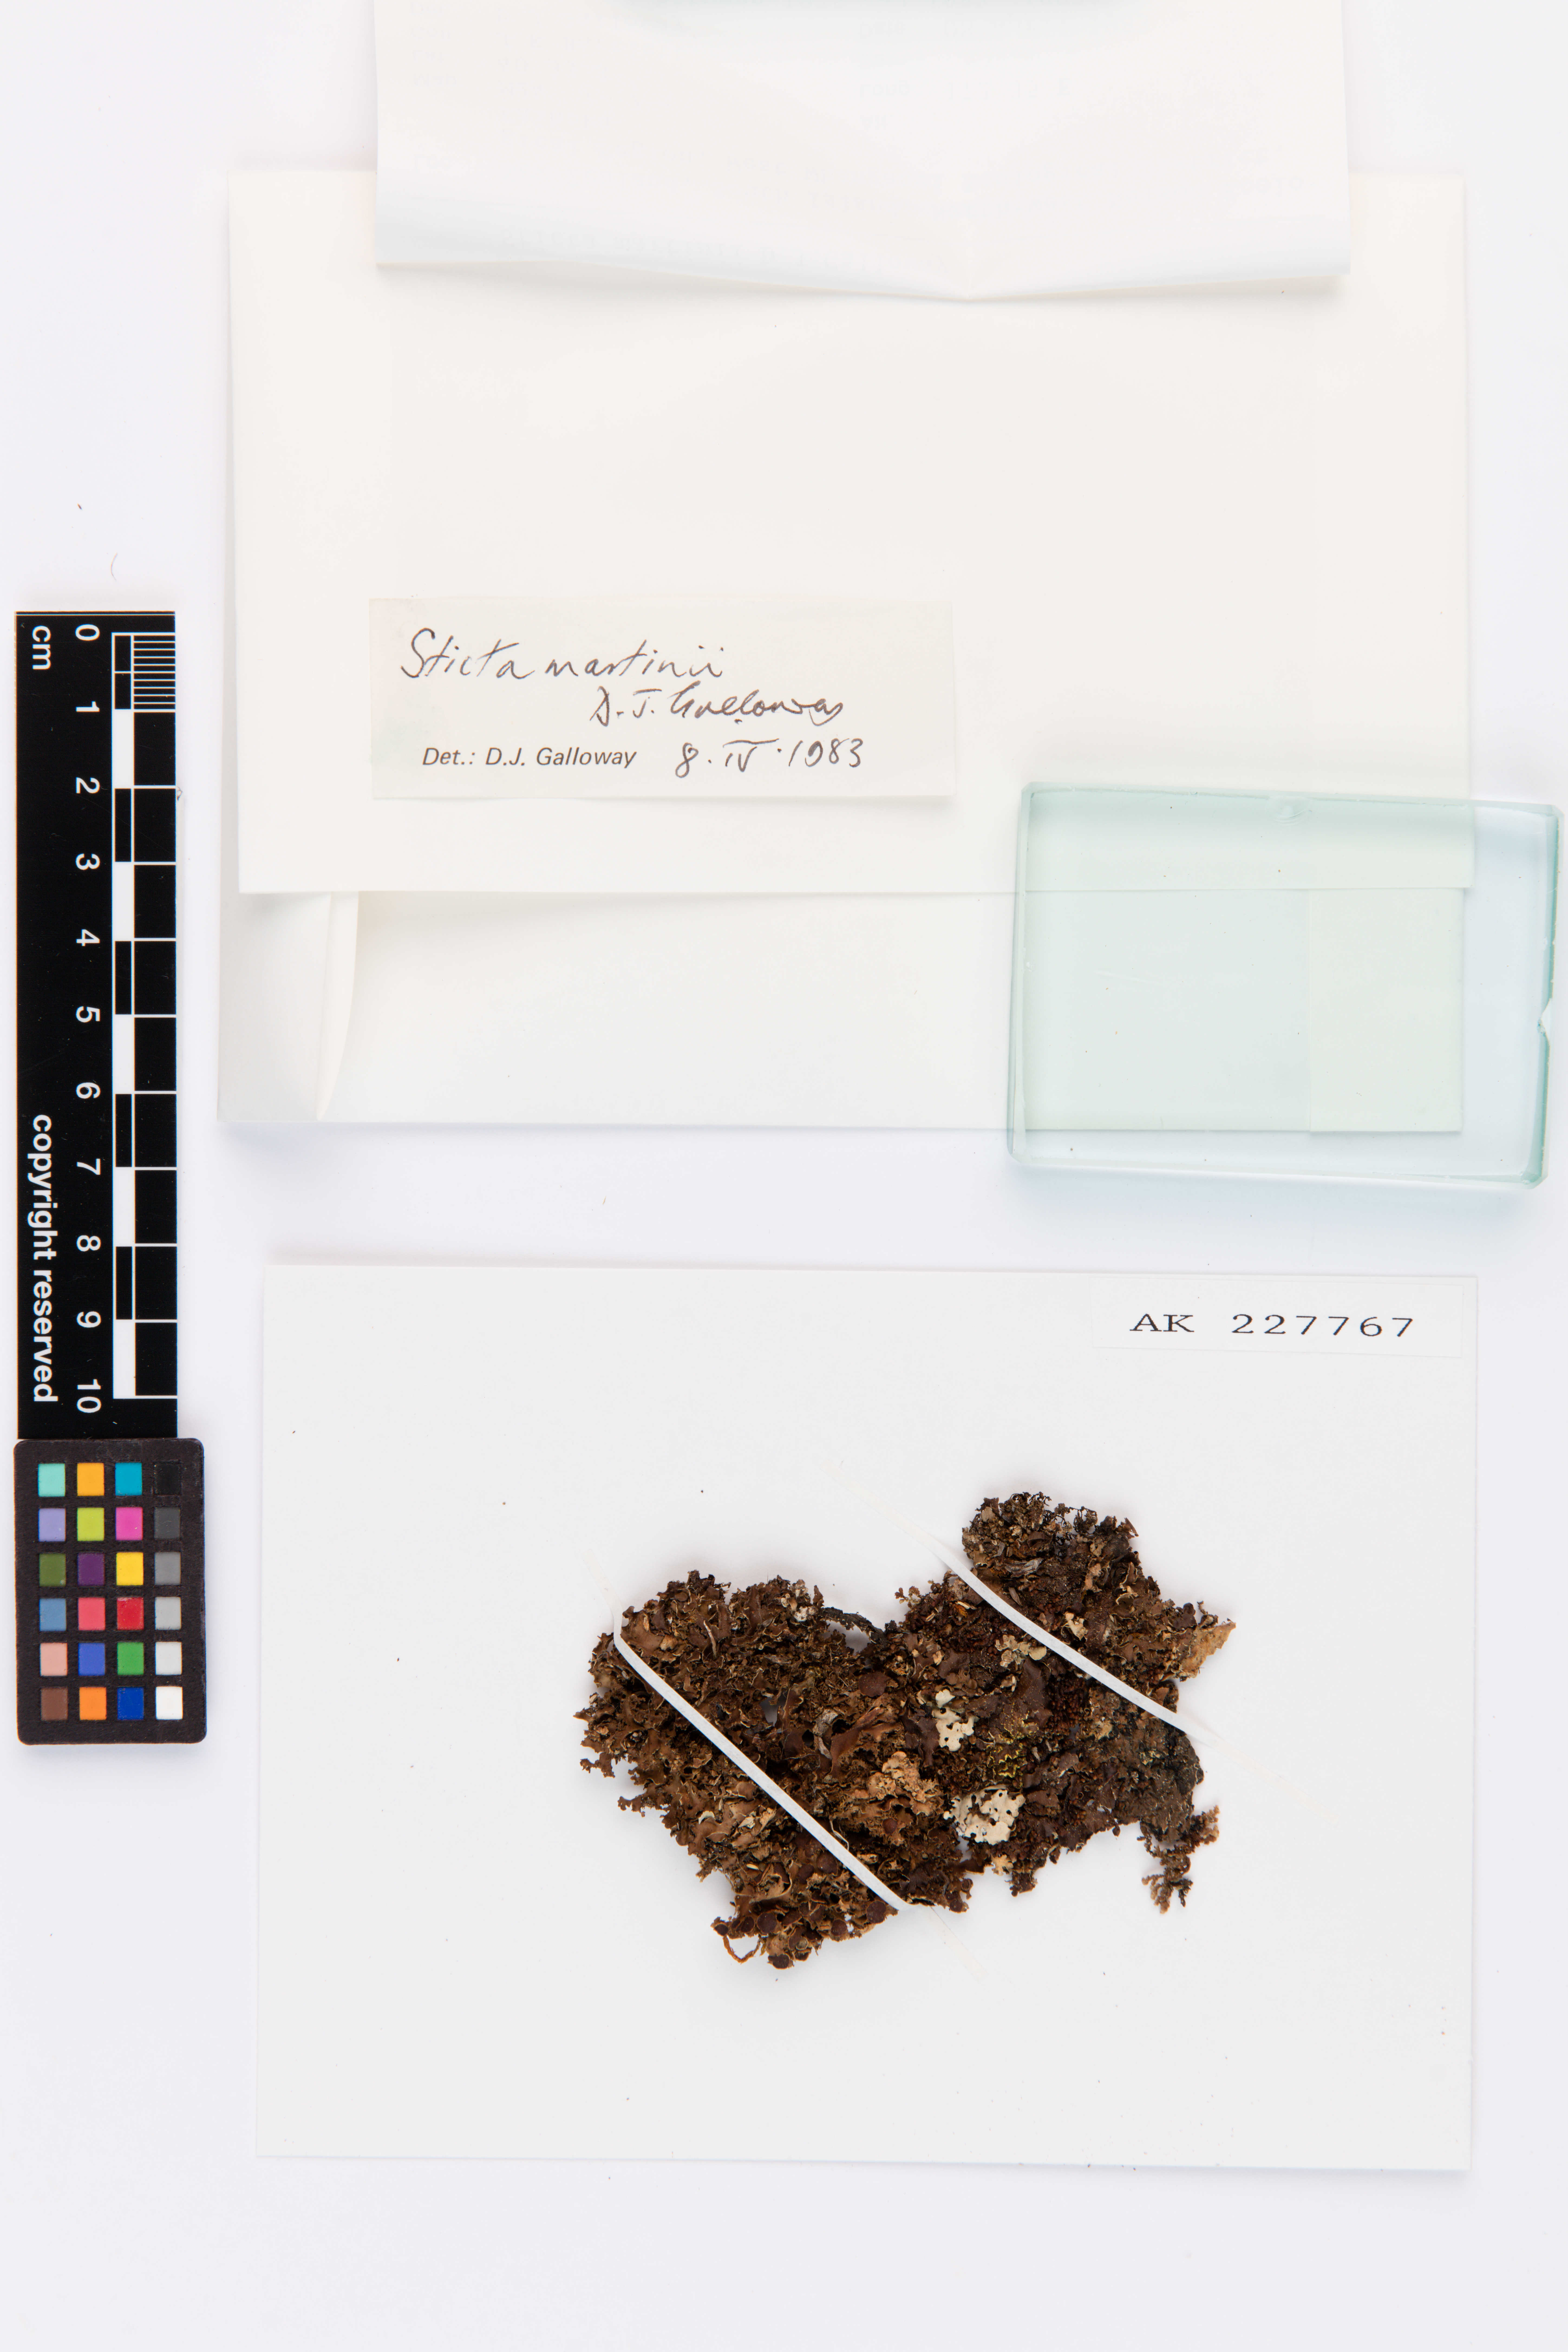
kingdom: Fungi
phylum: Ascomycota
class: Lecanoromycetes
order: Peltigerales
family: Lobariaceae
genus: Sticta
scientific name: Sticta martinii
